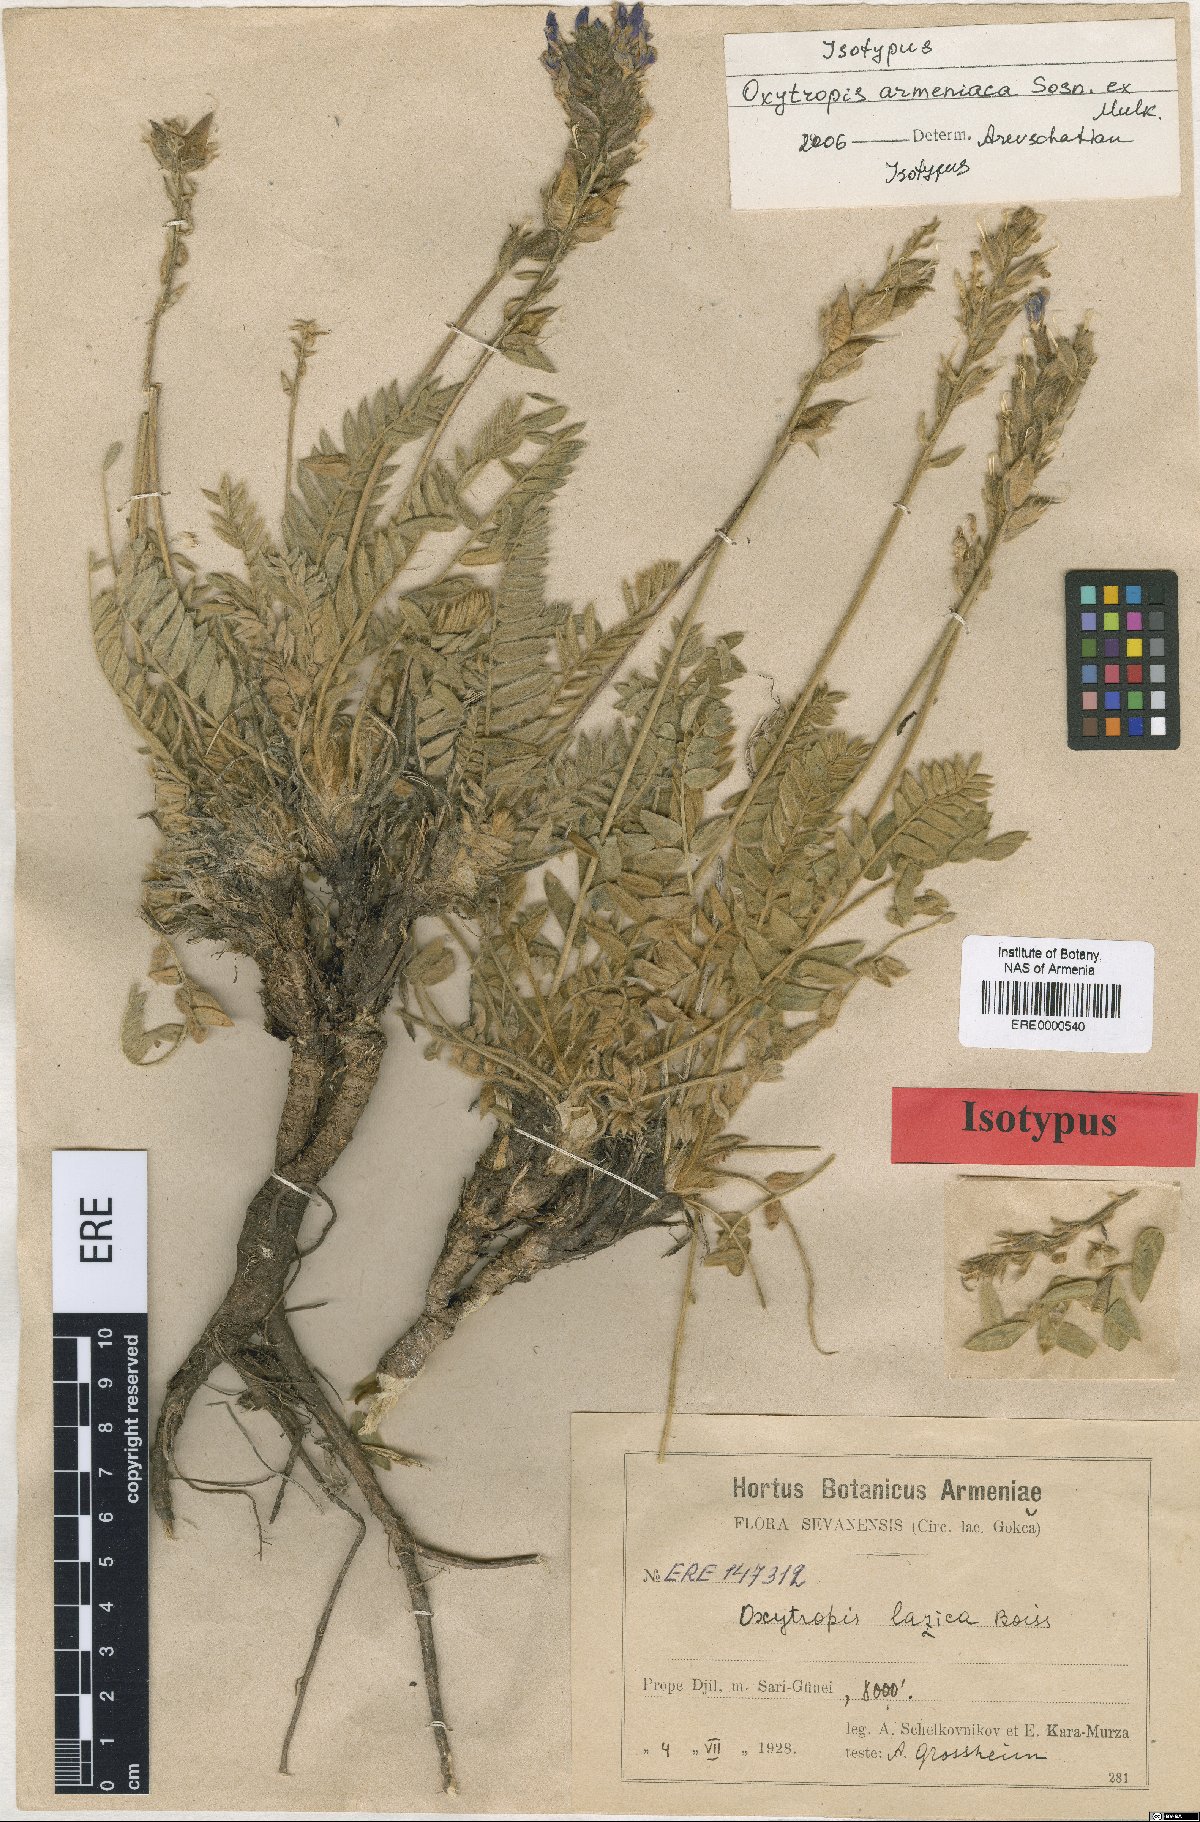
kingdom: Plantae
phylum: Tracheophyta
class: Magnoliopsida
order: Fabales
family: Fabaceae
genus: Oxytropis
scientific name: Oxytropis armeniaca
